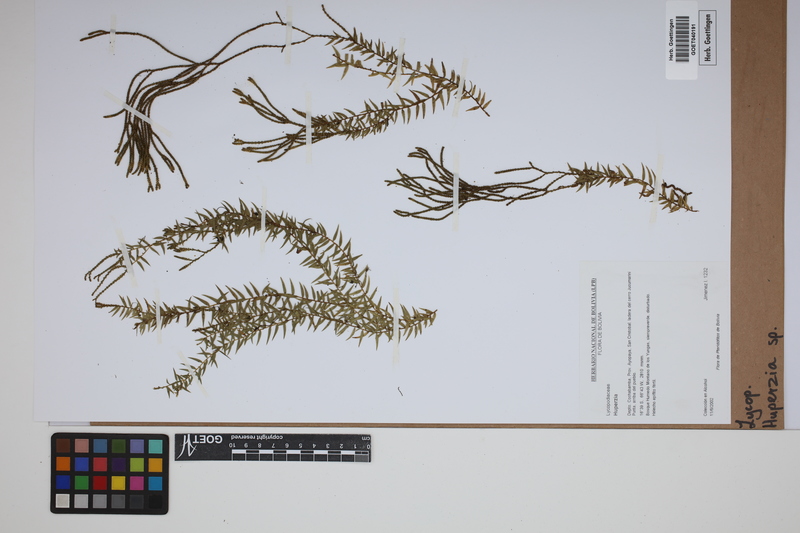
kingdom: Plantae
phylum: Tracheophyta
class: Lycopodiopsida
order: Lycopodiales
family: Lycopodiaceae
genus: Phlegmariurus
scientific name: Phlegmariurus
